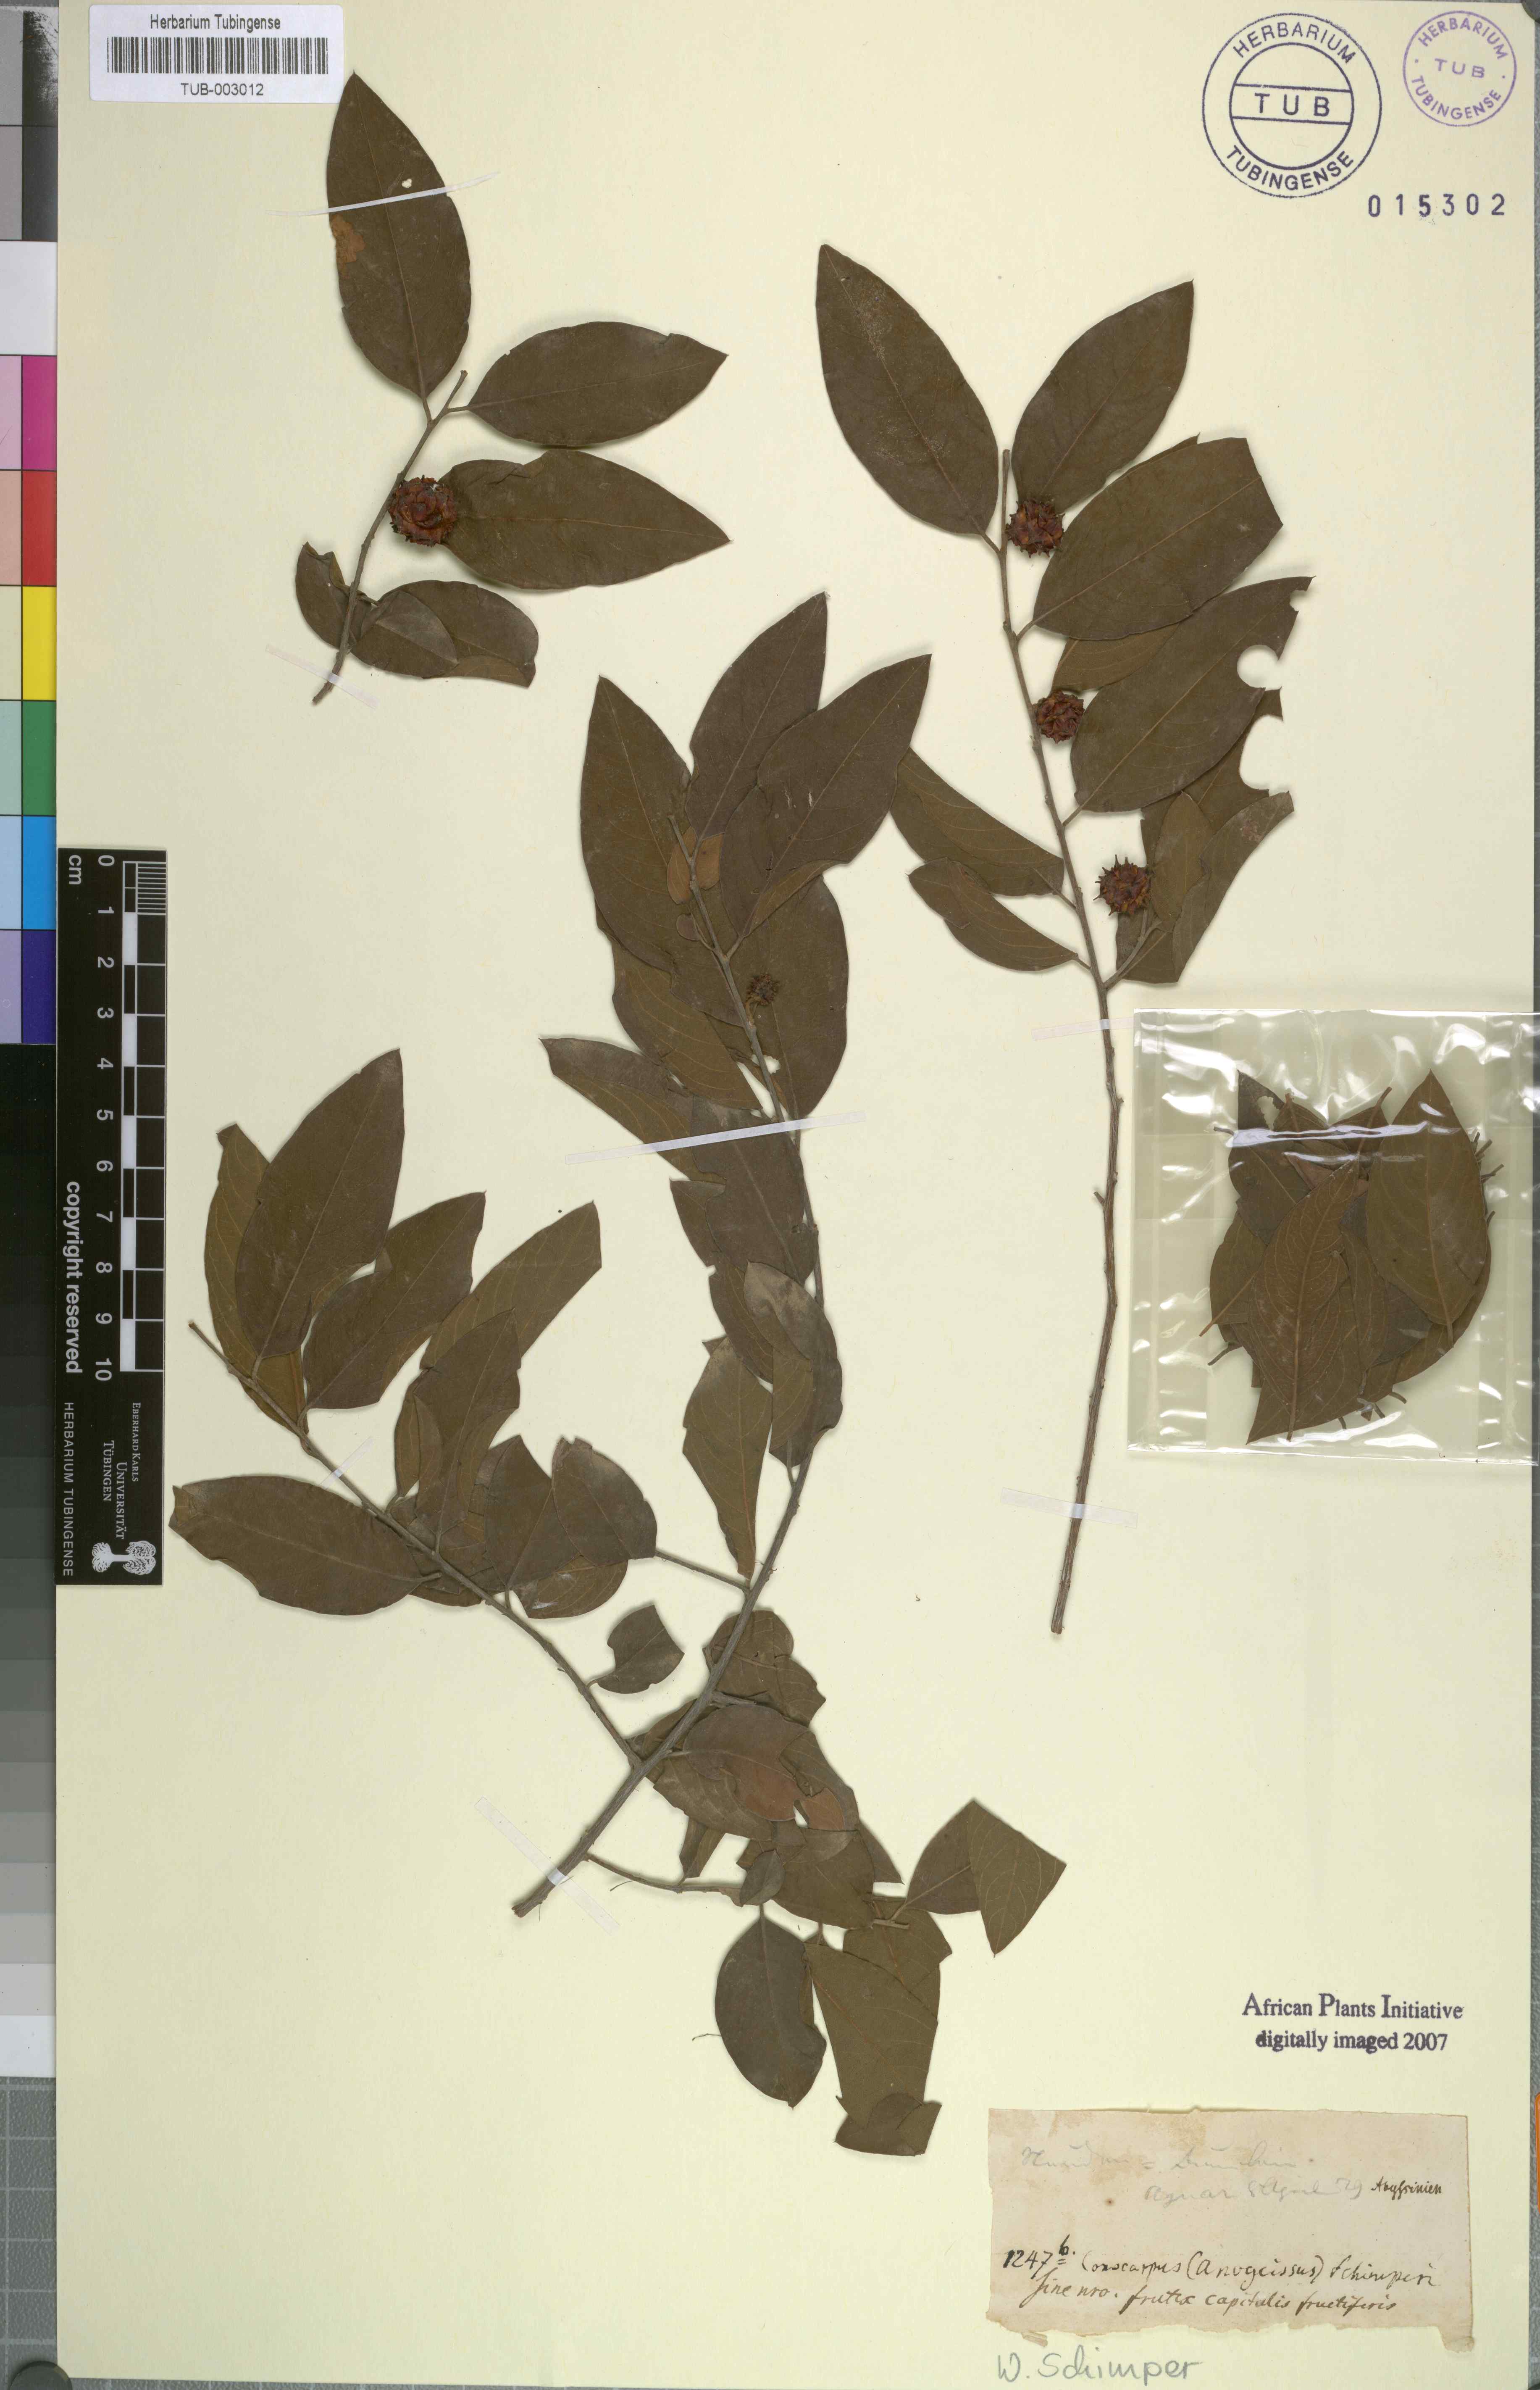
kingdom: Plantae
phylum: Tracheophyta
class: Magnoliopsida
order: Myrtales
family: Combretaceae
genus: Terminalia
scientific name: Terminalia leiocarpa
